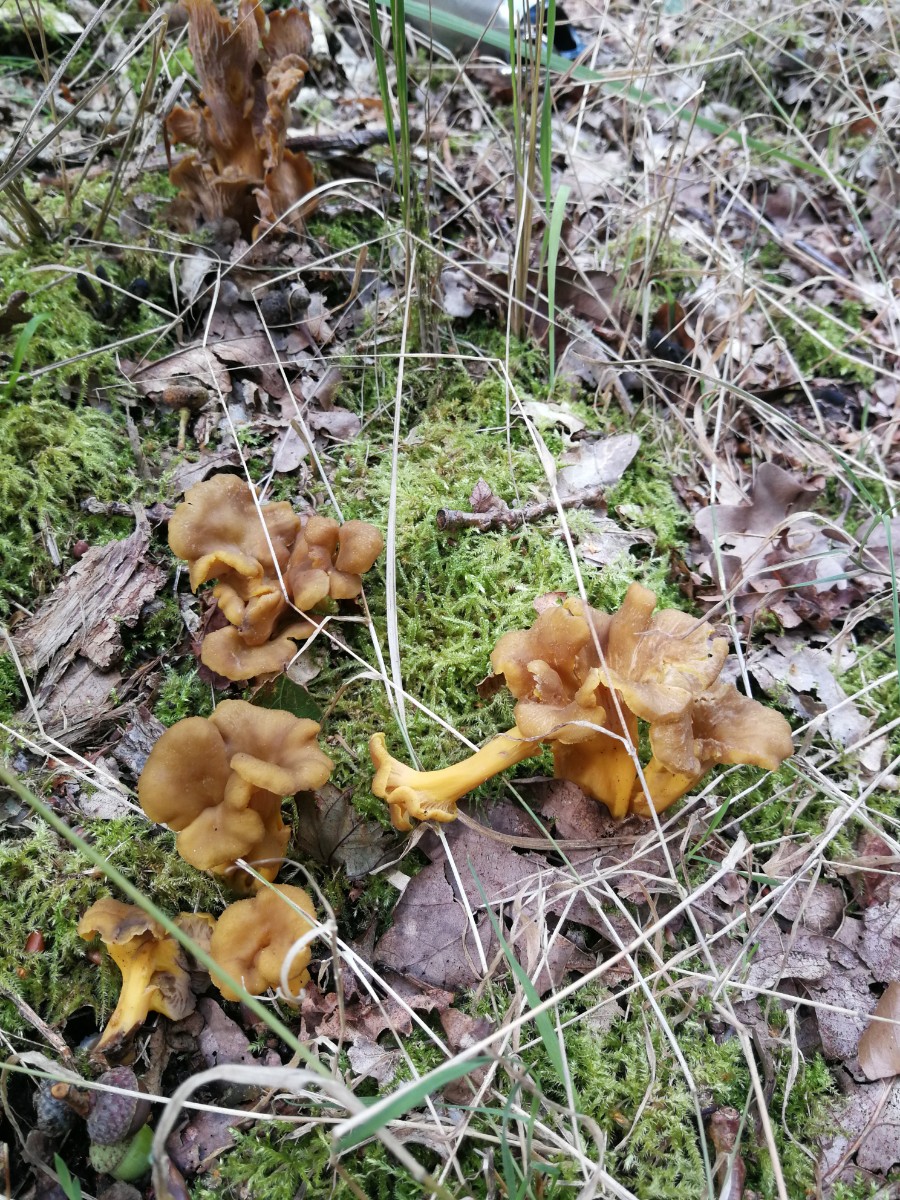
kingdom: Fungi
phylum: Basidiomycota
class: Agaricomycetes
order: Cantharellales
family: Hydnaceae
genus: Cantharellus
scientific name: Cantharellus melanoxeros
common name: sværtende kantarel
